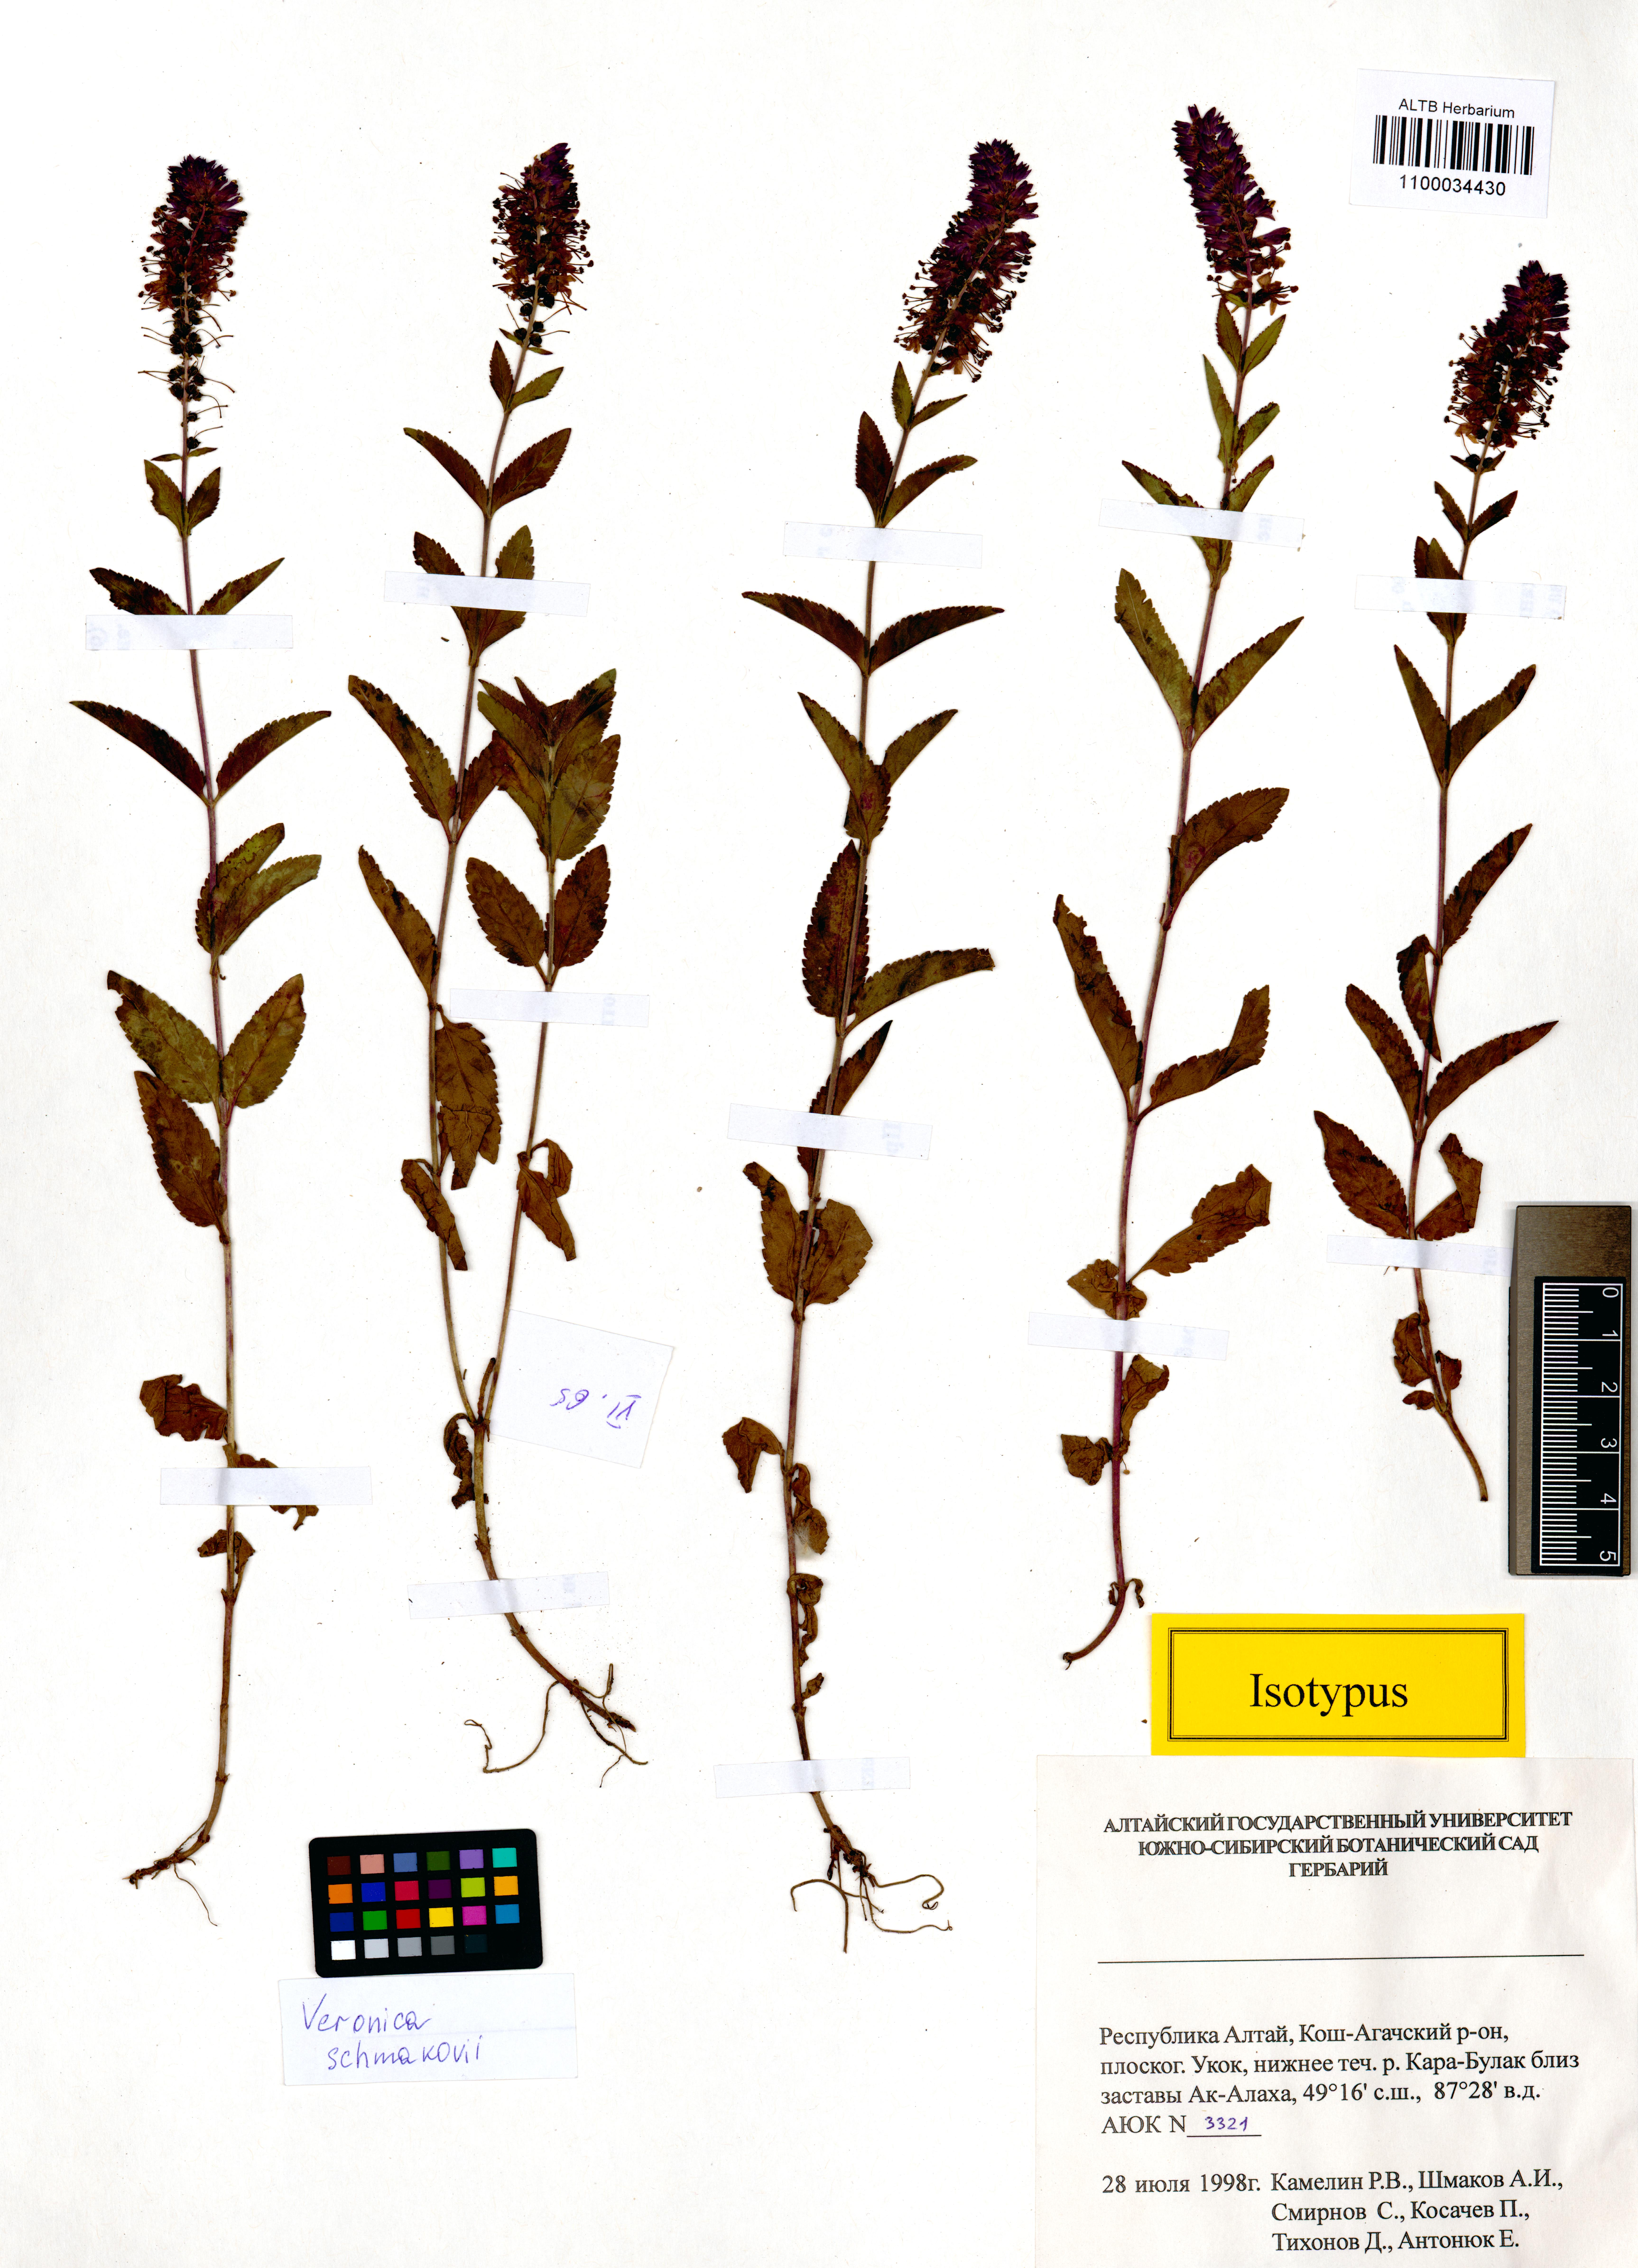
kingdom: Plantae
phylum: Tracheophyta
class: Magnoliopsida
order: Lamiales
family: Plantaginaceae
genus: Veronica
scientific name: Veronica schmakovii
